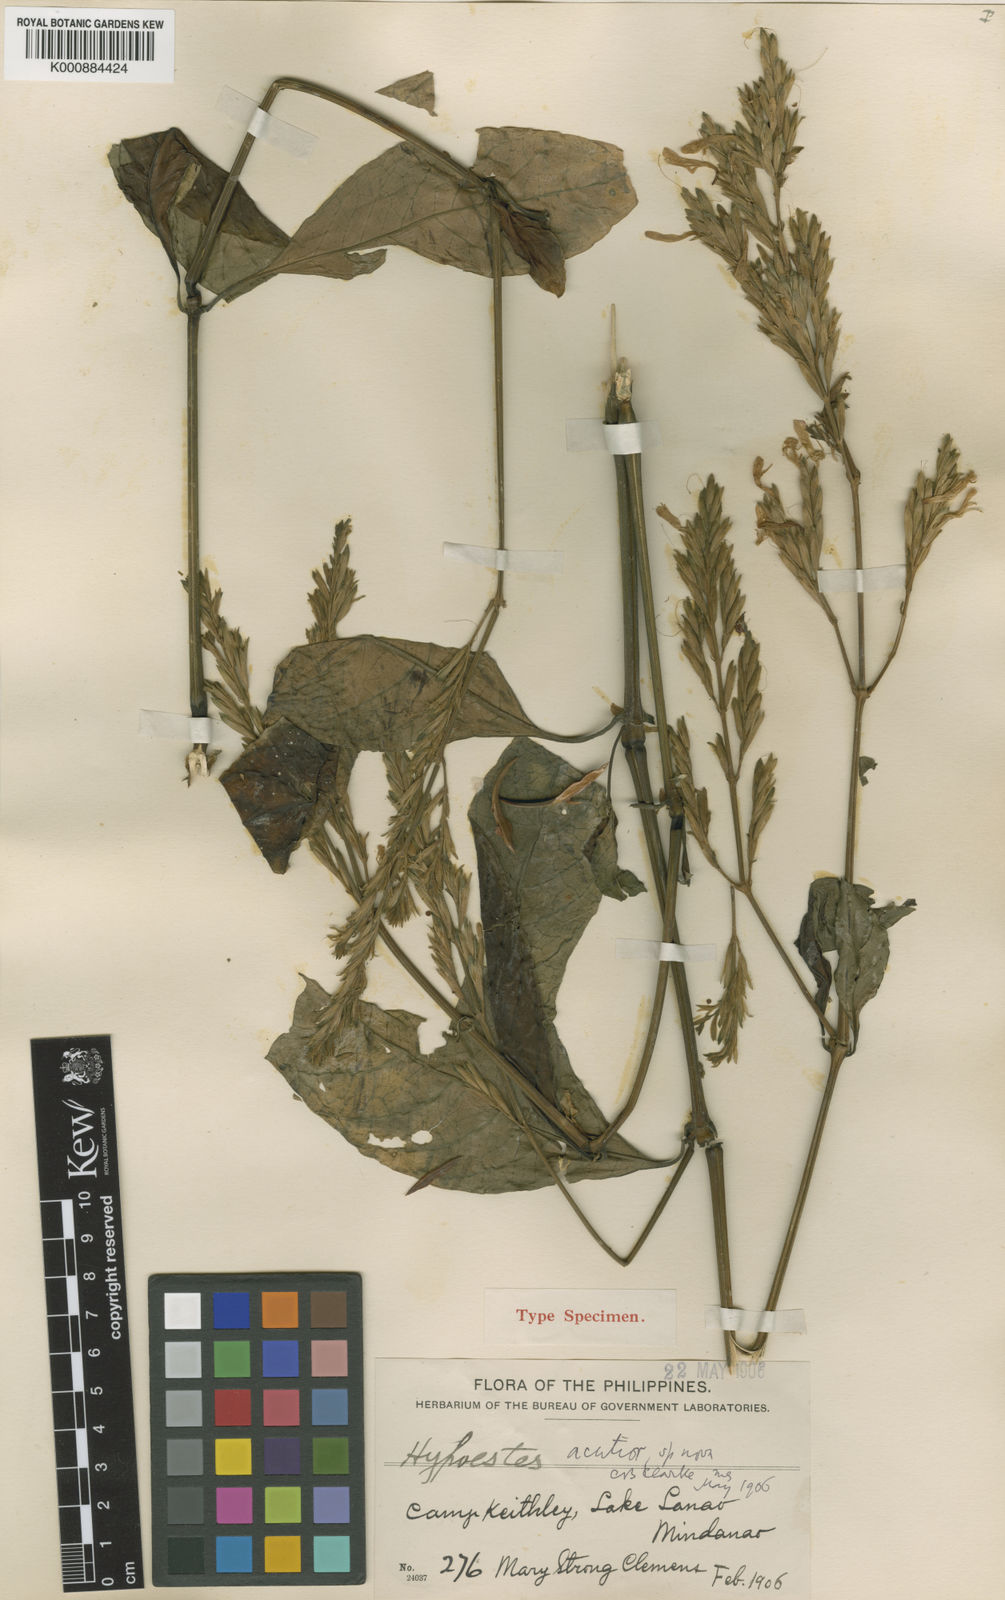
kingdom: Plantae
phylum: Tracheophyta
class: Magnoliopsida
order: Lamiales
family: Acanthaceae
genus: Hypoestes
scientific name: Hypoestes
